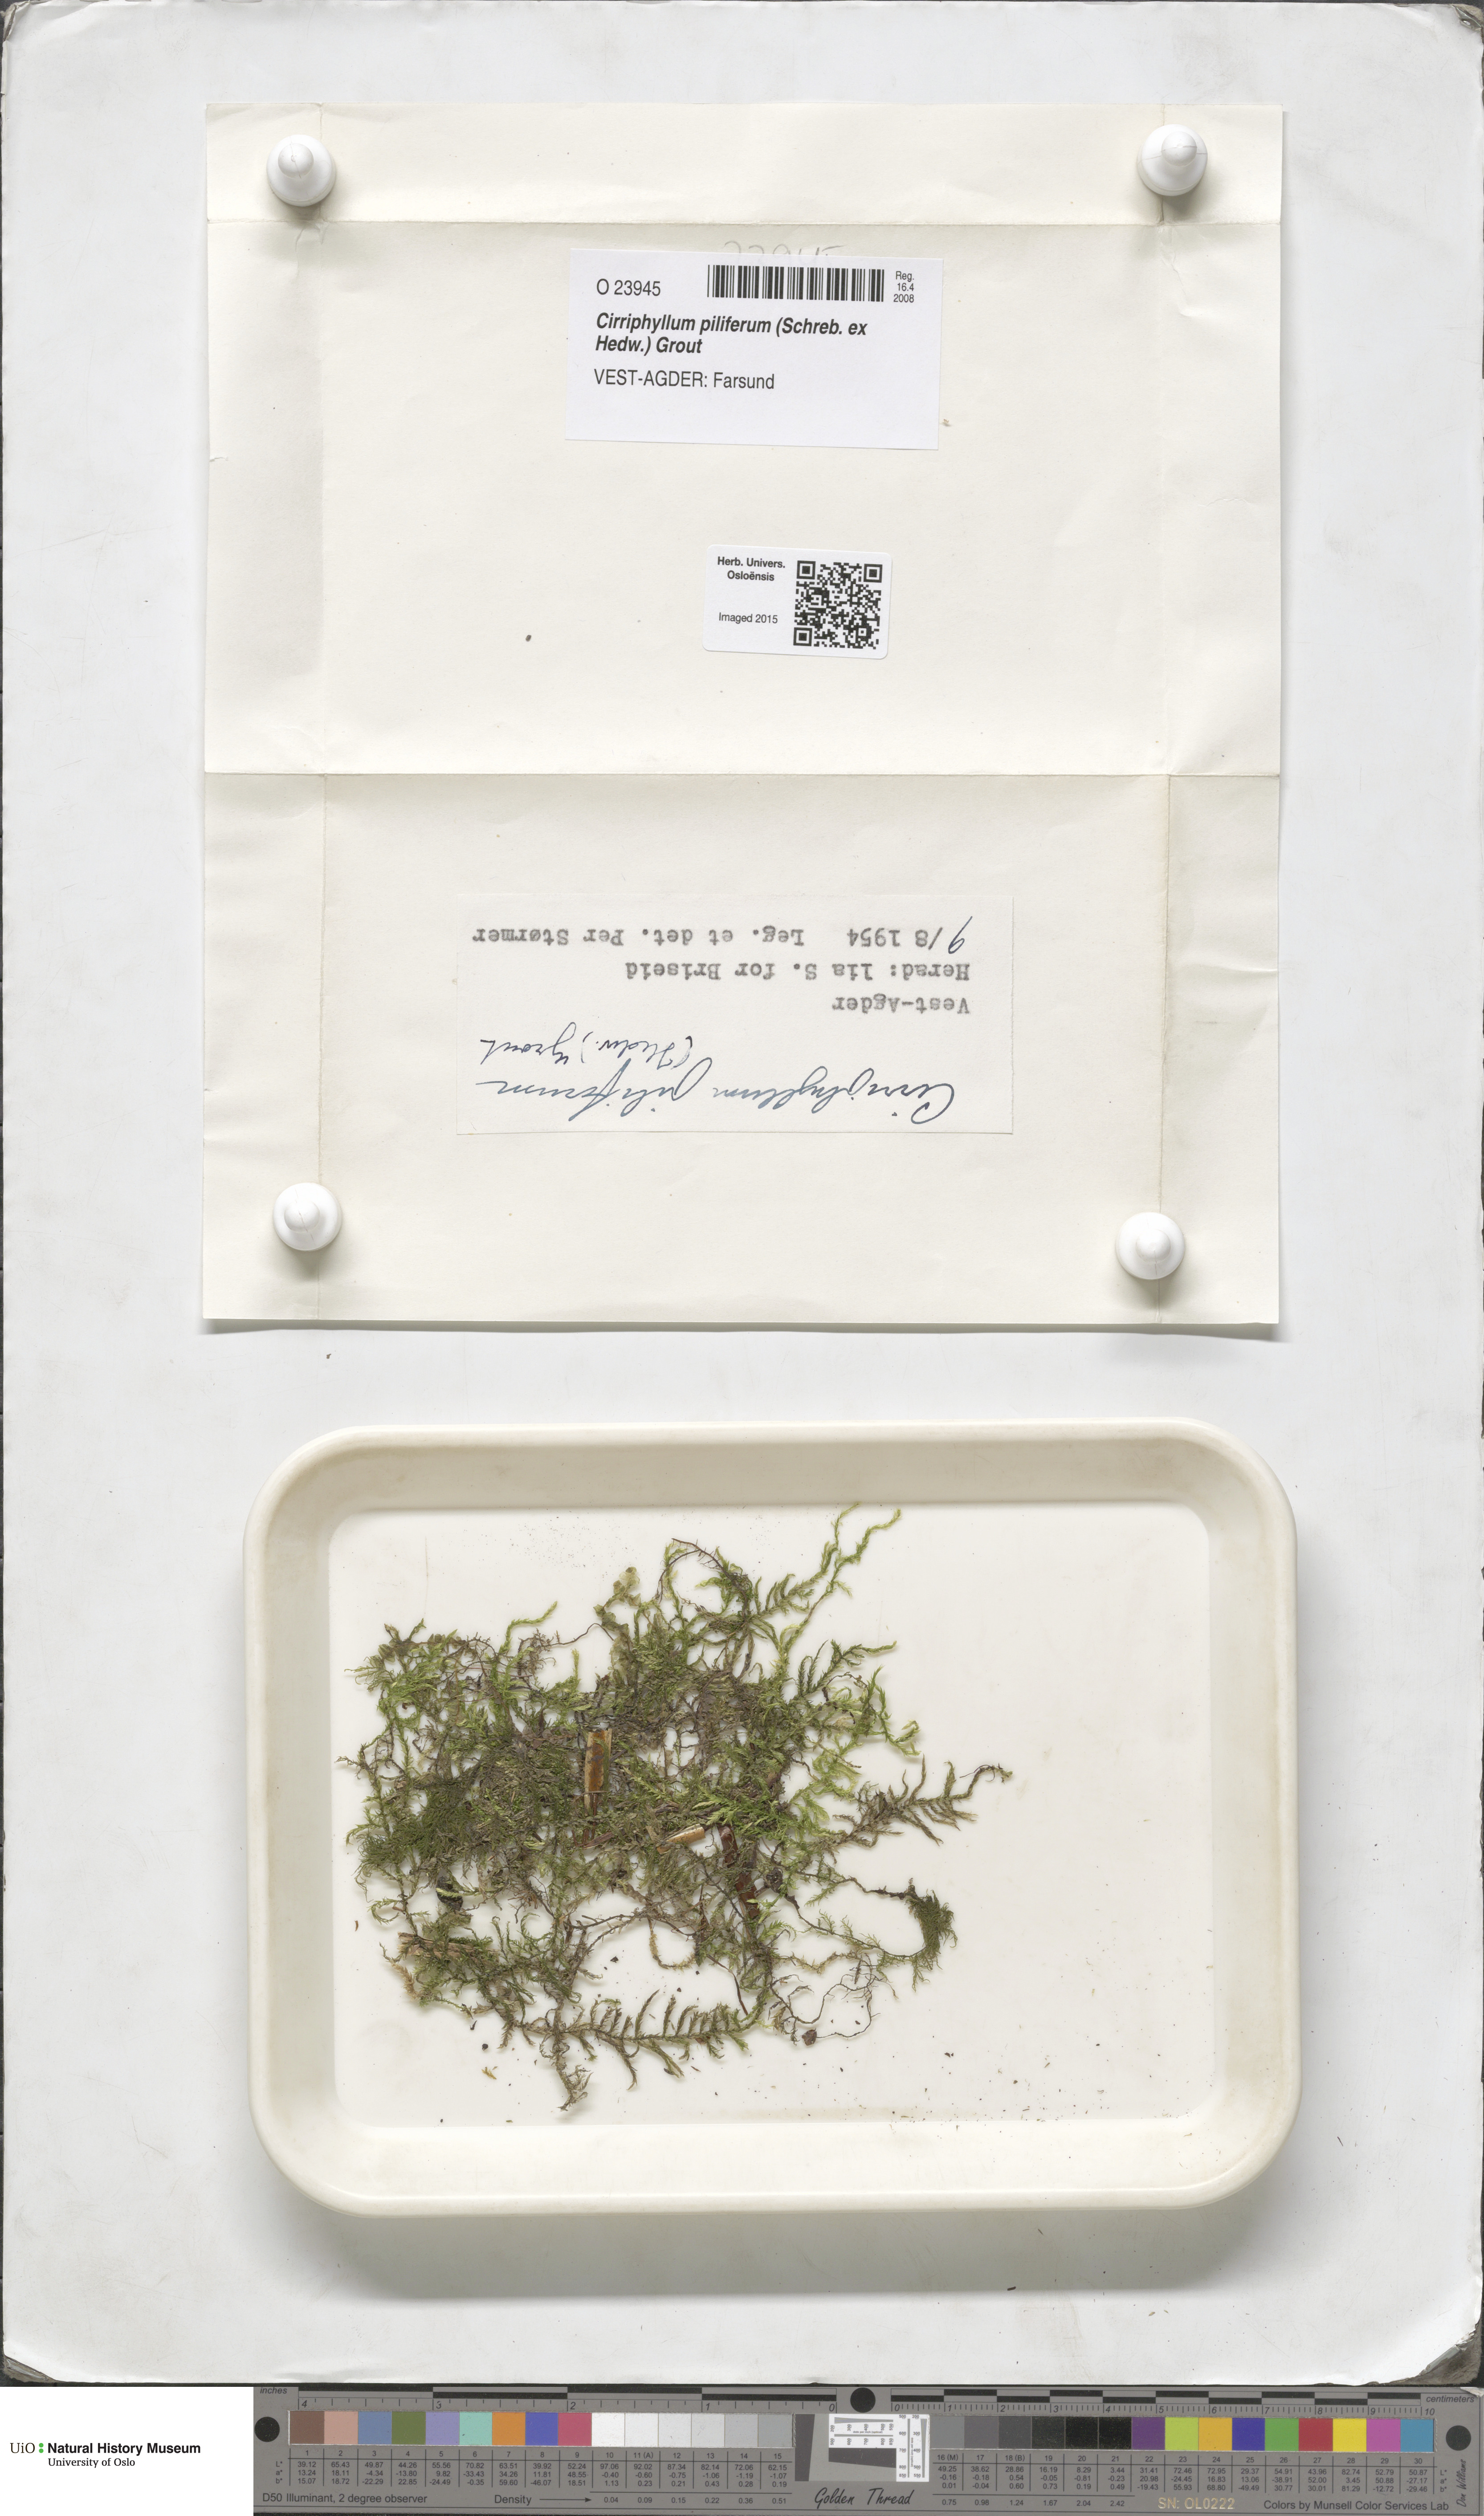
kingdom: Plantae
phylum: Bryophyta
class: Bryopsida
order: Hypnales
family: Brachytheciaceae
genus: Cirriphyllum
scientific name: Cirriphyllum piliferum
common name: Hair-pointed moss
